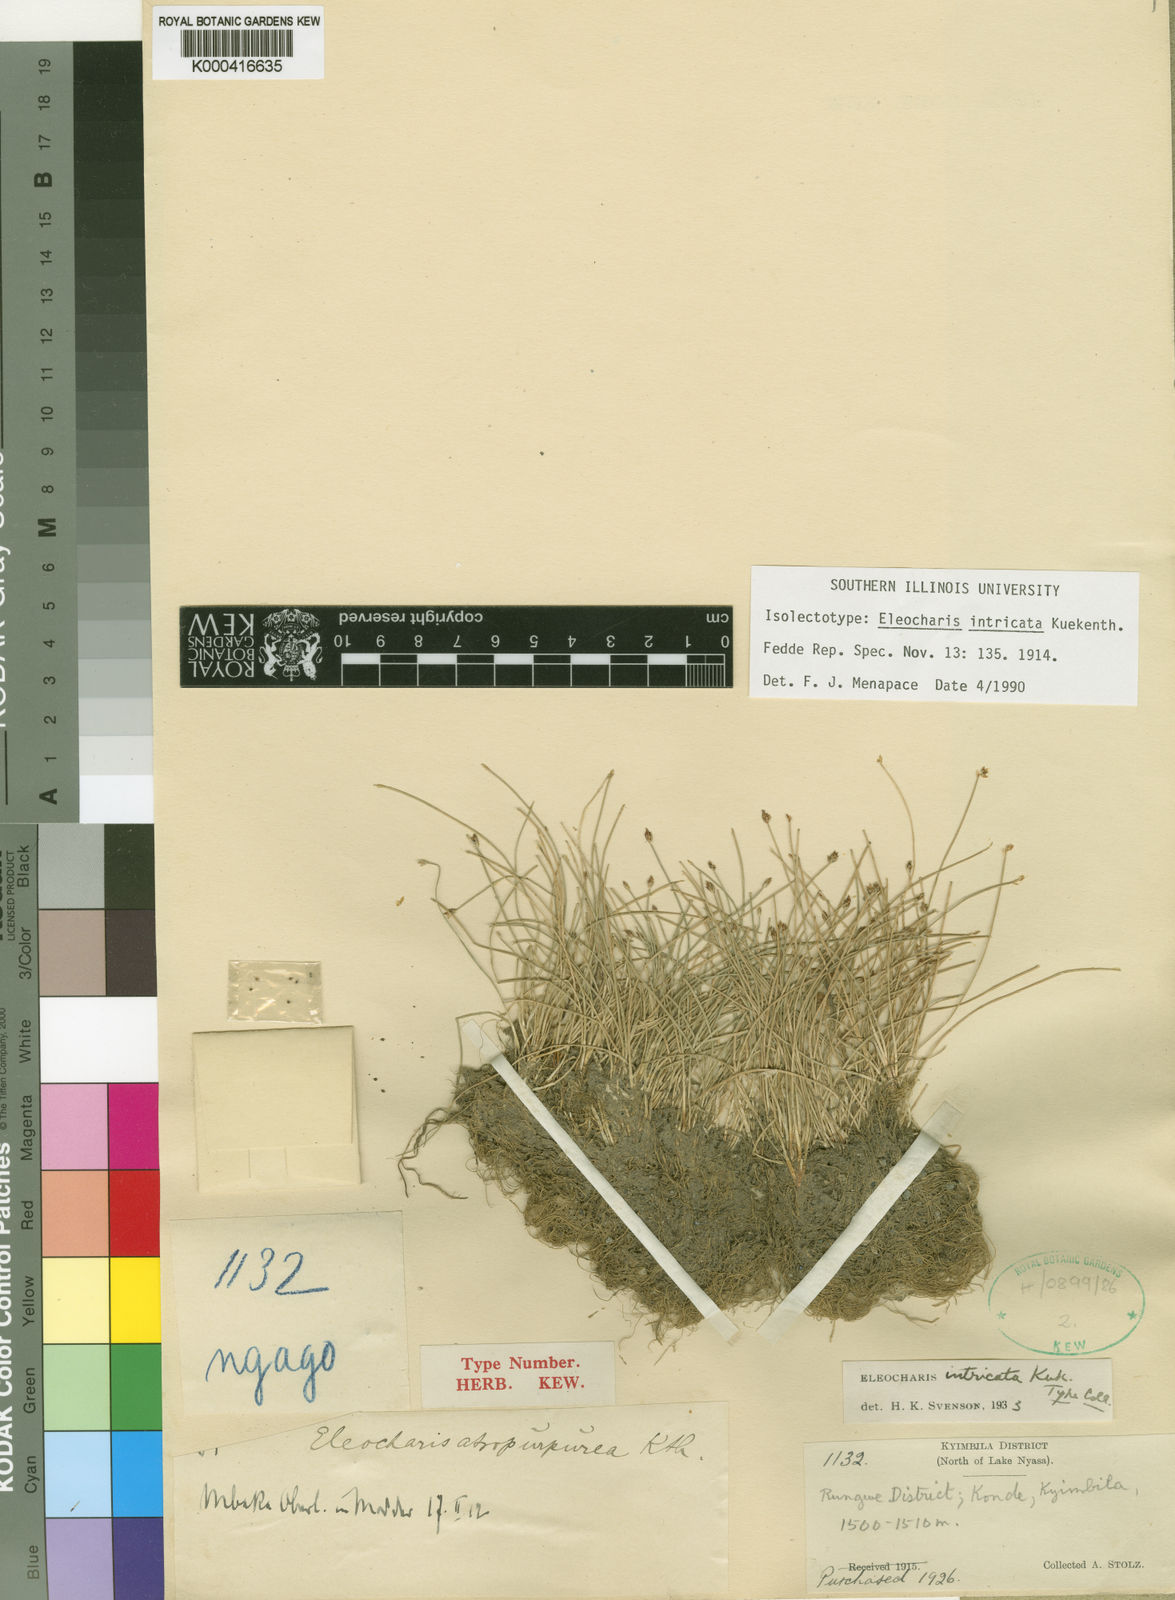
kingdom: Plantae
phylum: Tracheophyta
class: Liliopsida
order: Poales
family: Cyperaceae
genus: Eleocharis
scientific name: Eleocharis
